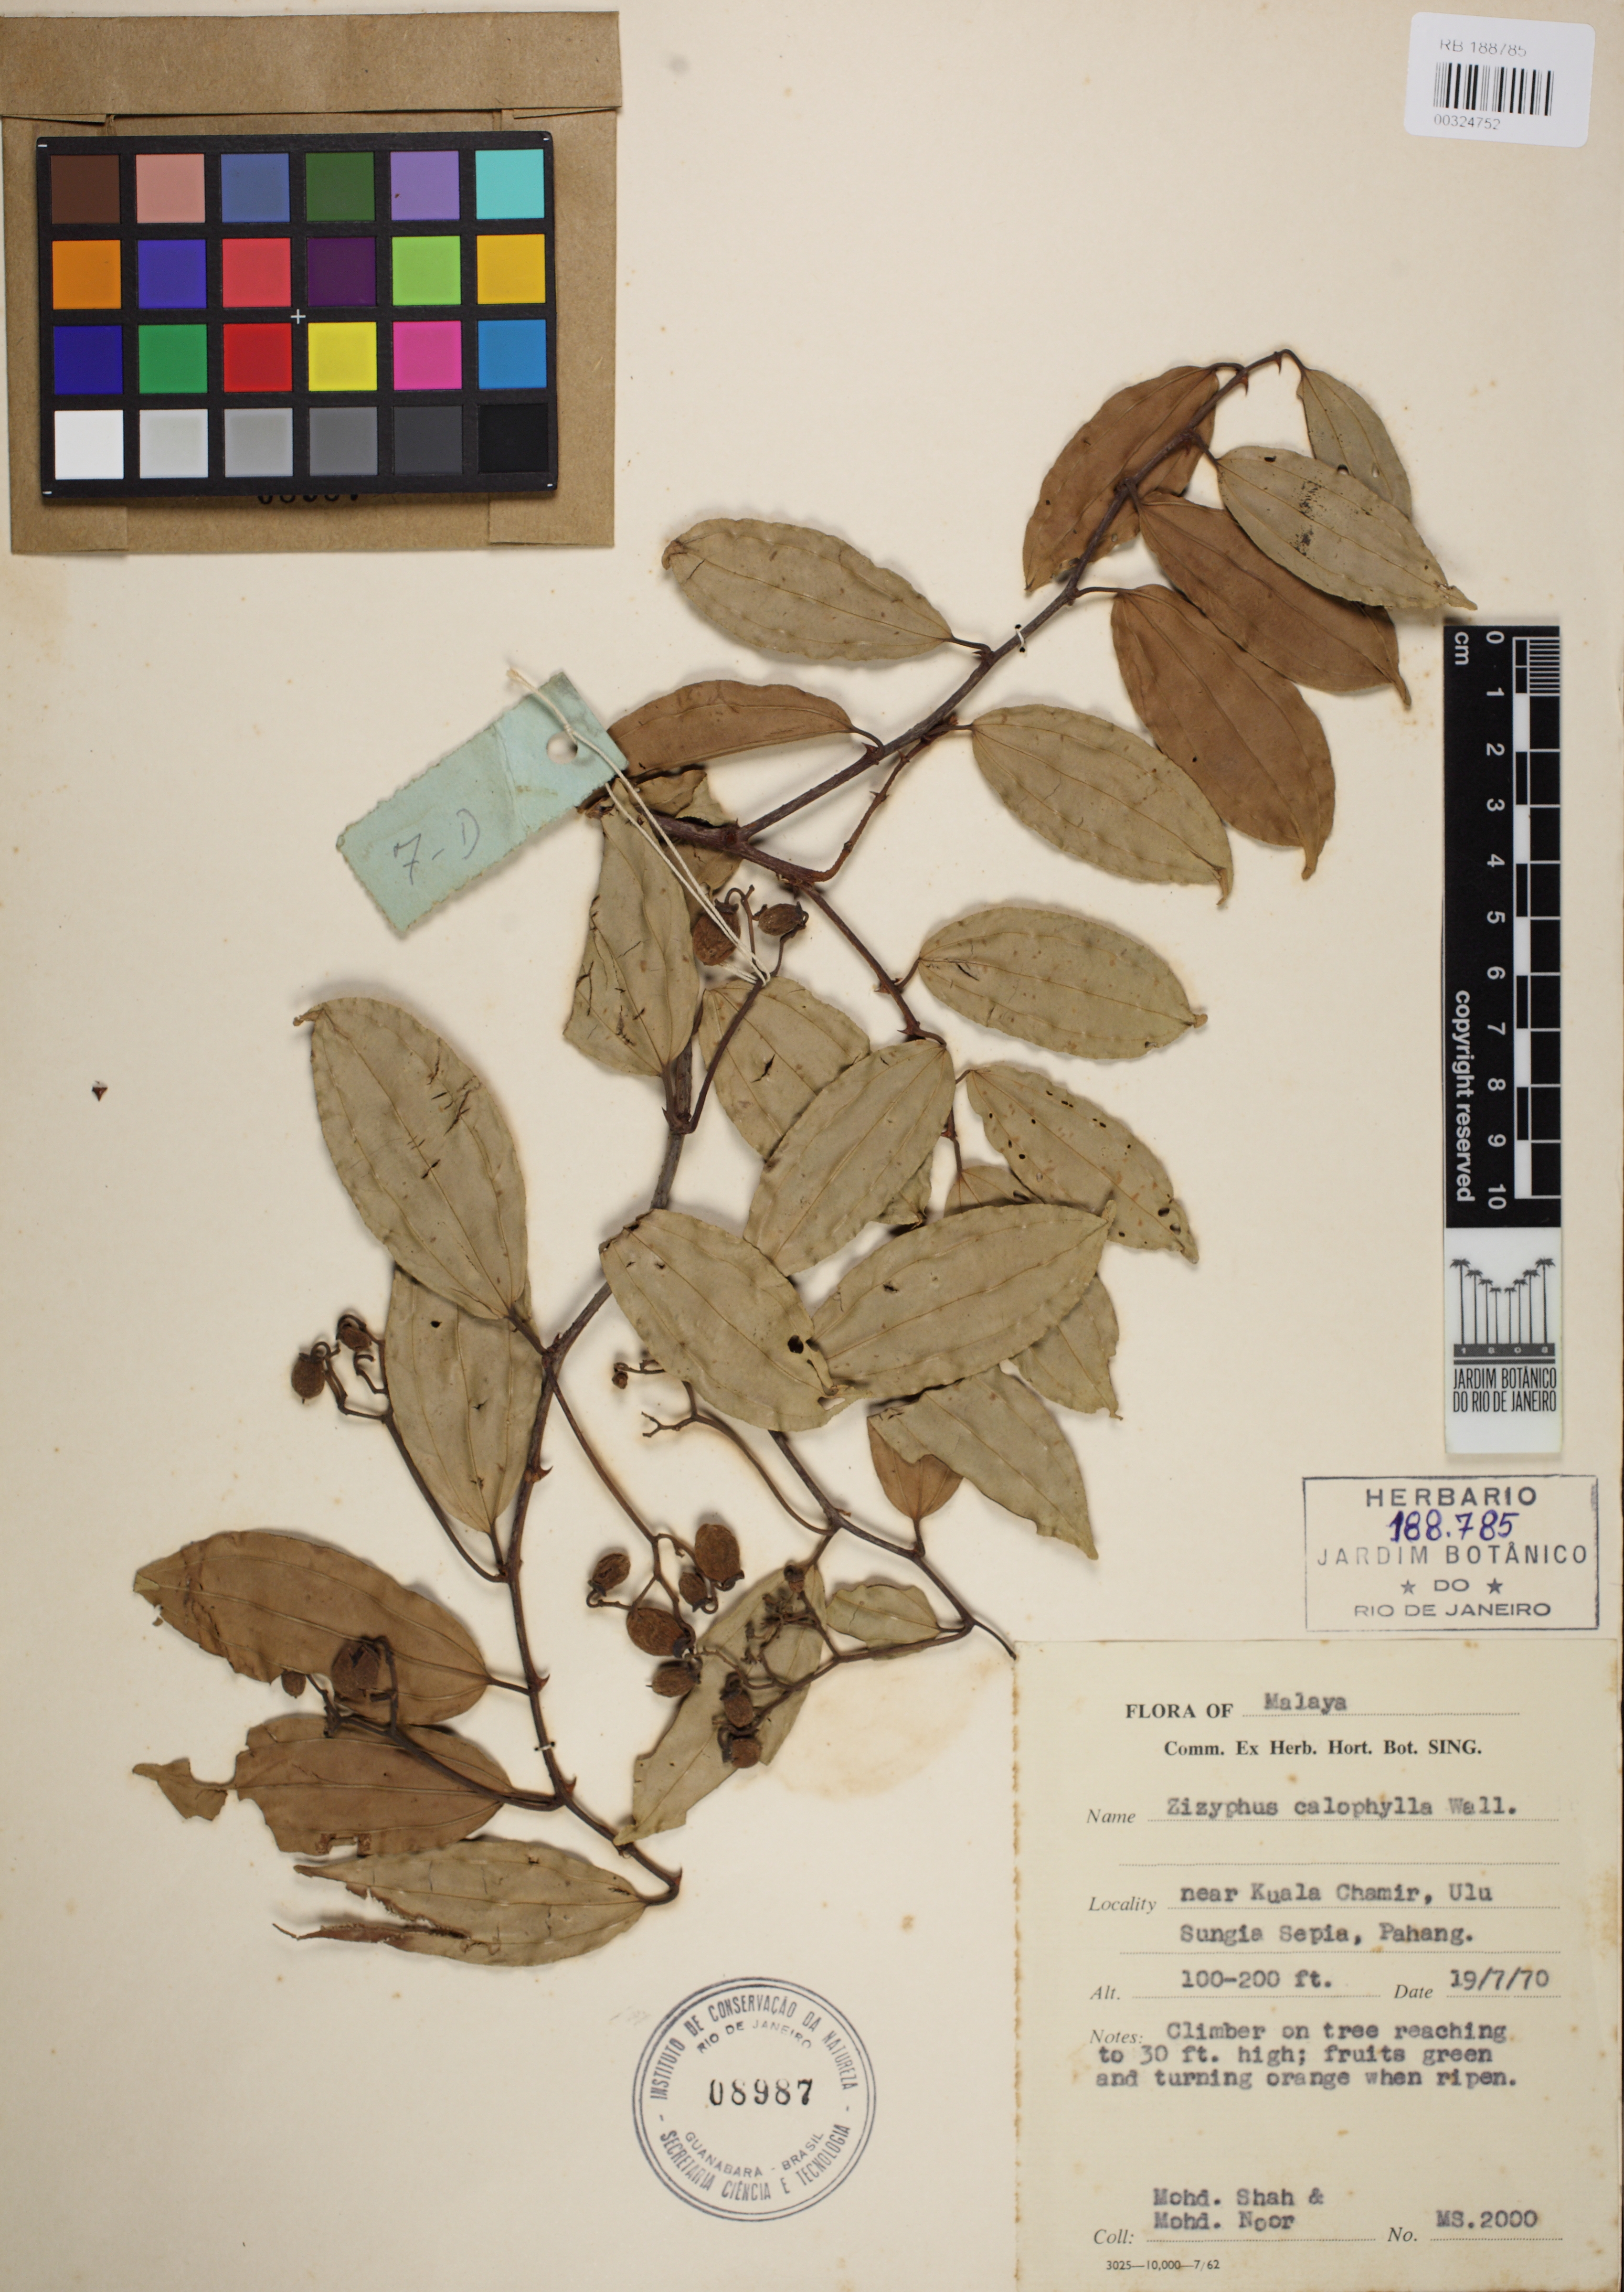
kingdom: Plantae
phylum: Tracheophyta
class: Magnoliopsida
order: Rosales
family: Rhamnaceae
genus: Ziziphus
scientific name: Ziziphus calophylla
